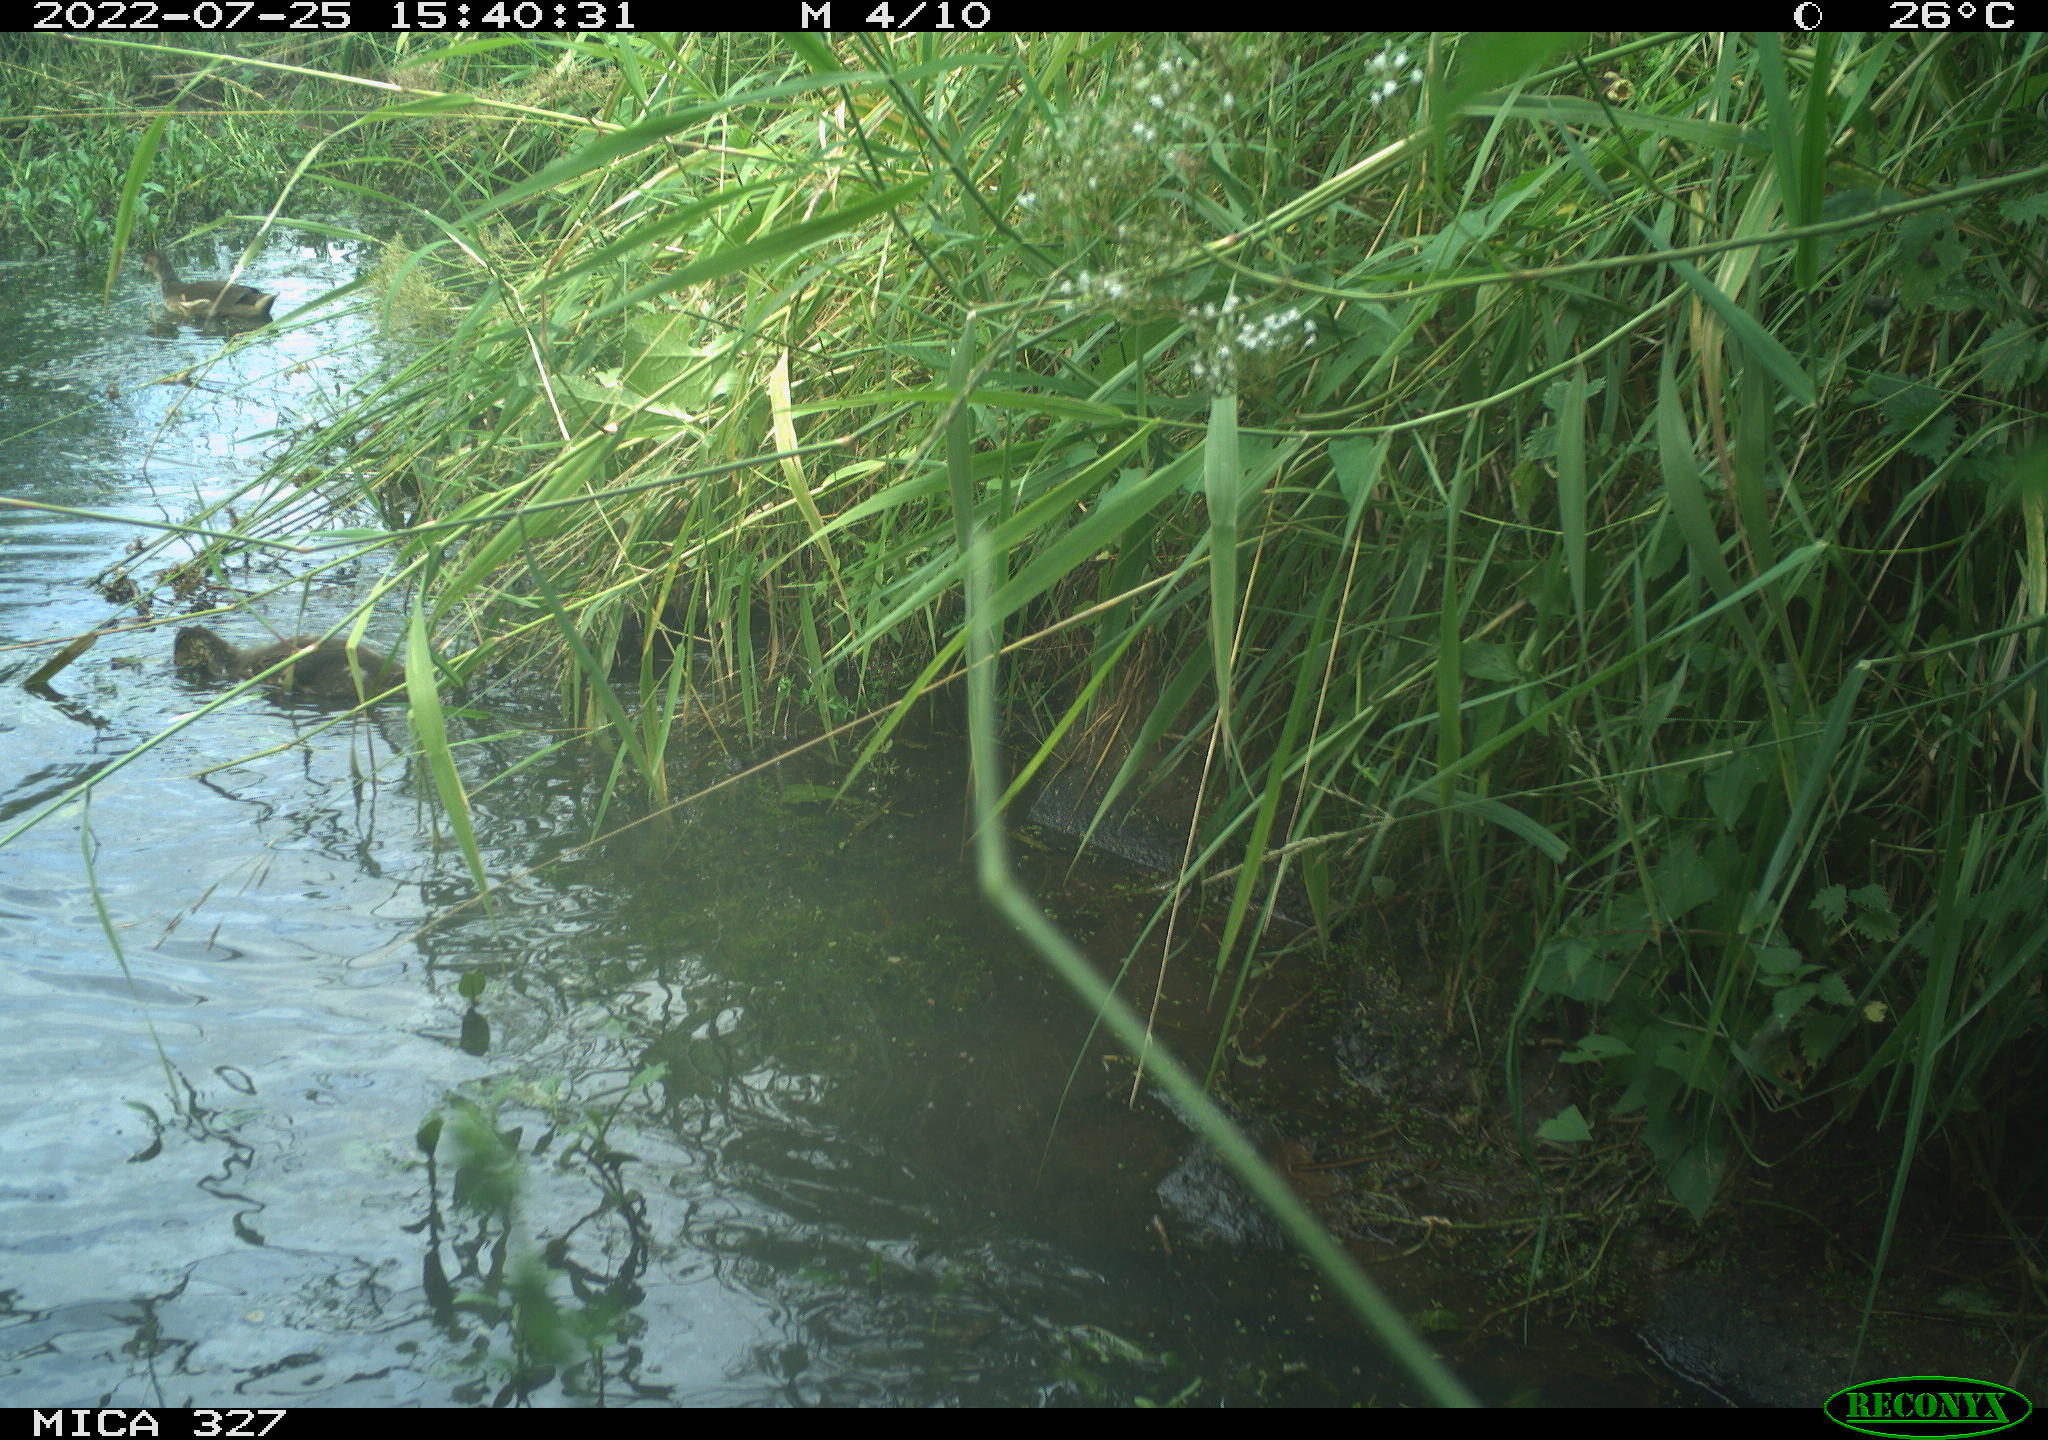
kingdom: Animalia
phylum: Chordata
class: Aves
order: Anseriformes
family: Anatidae
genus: Anas
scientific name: Anas
